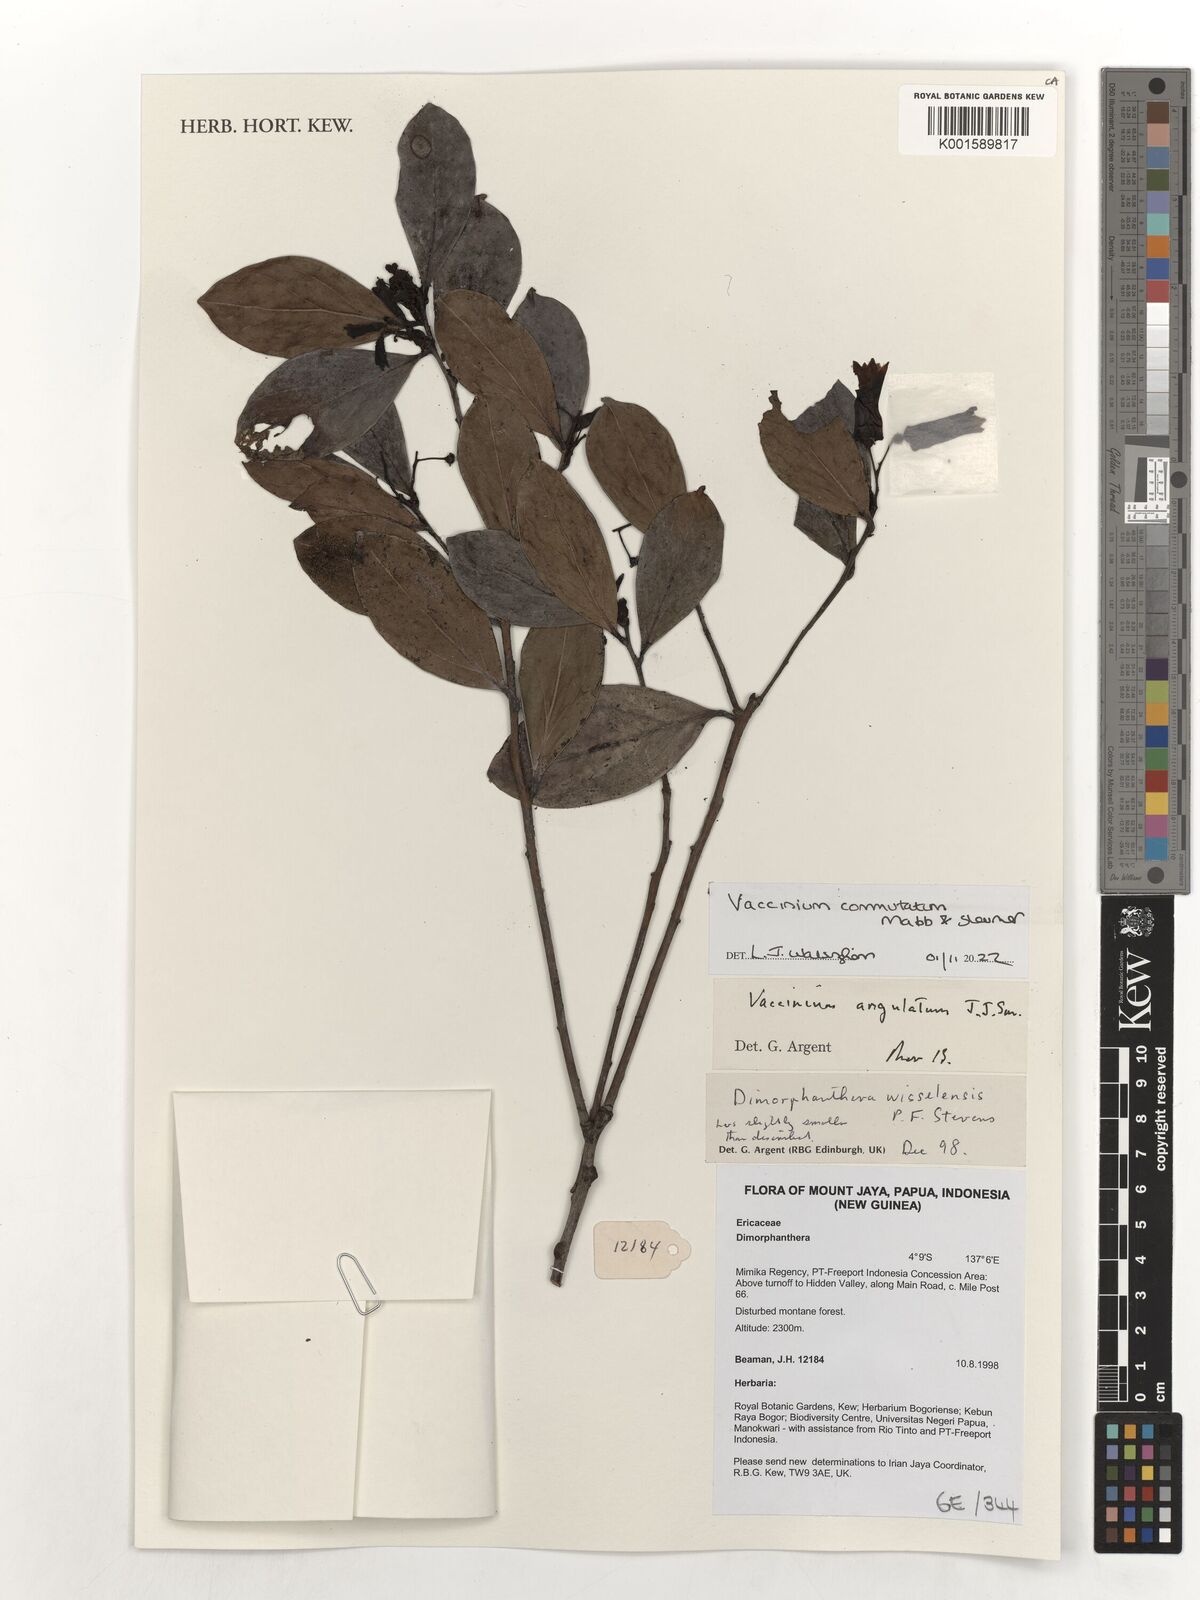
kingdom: Plantae
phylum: Tracheophyta
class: Magnoliopsida
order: Ericales
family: Ericaceae
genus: Vaccinium
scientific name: Vaccinium commutatum
